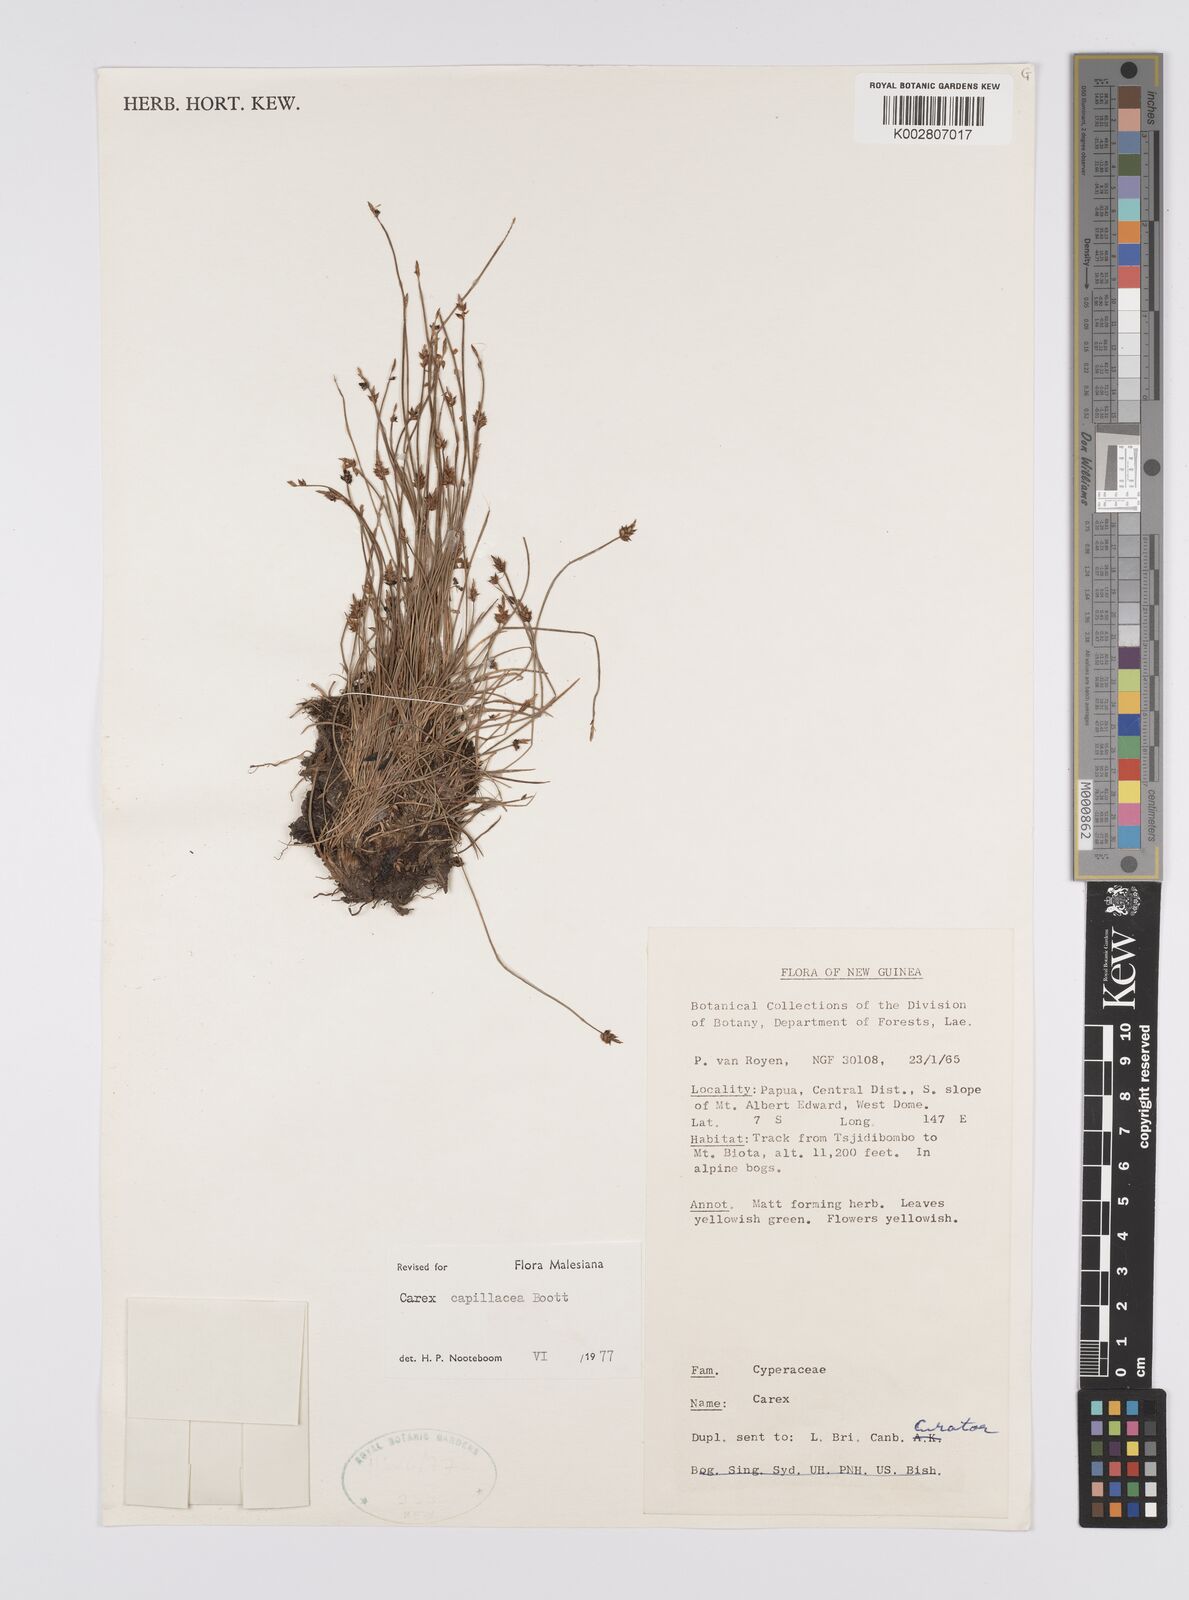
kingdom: Plantae
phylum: Tracheophyta
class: Liliopsida
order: Poales
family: Cyperaceae
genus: Carex
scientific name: Carex capillacea
